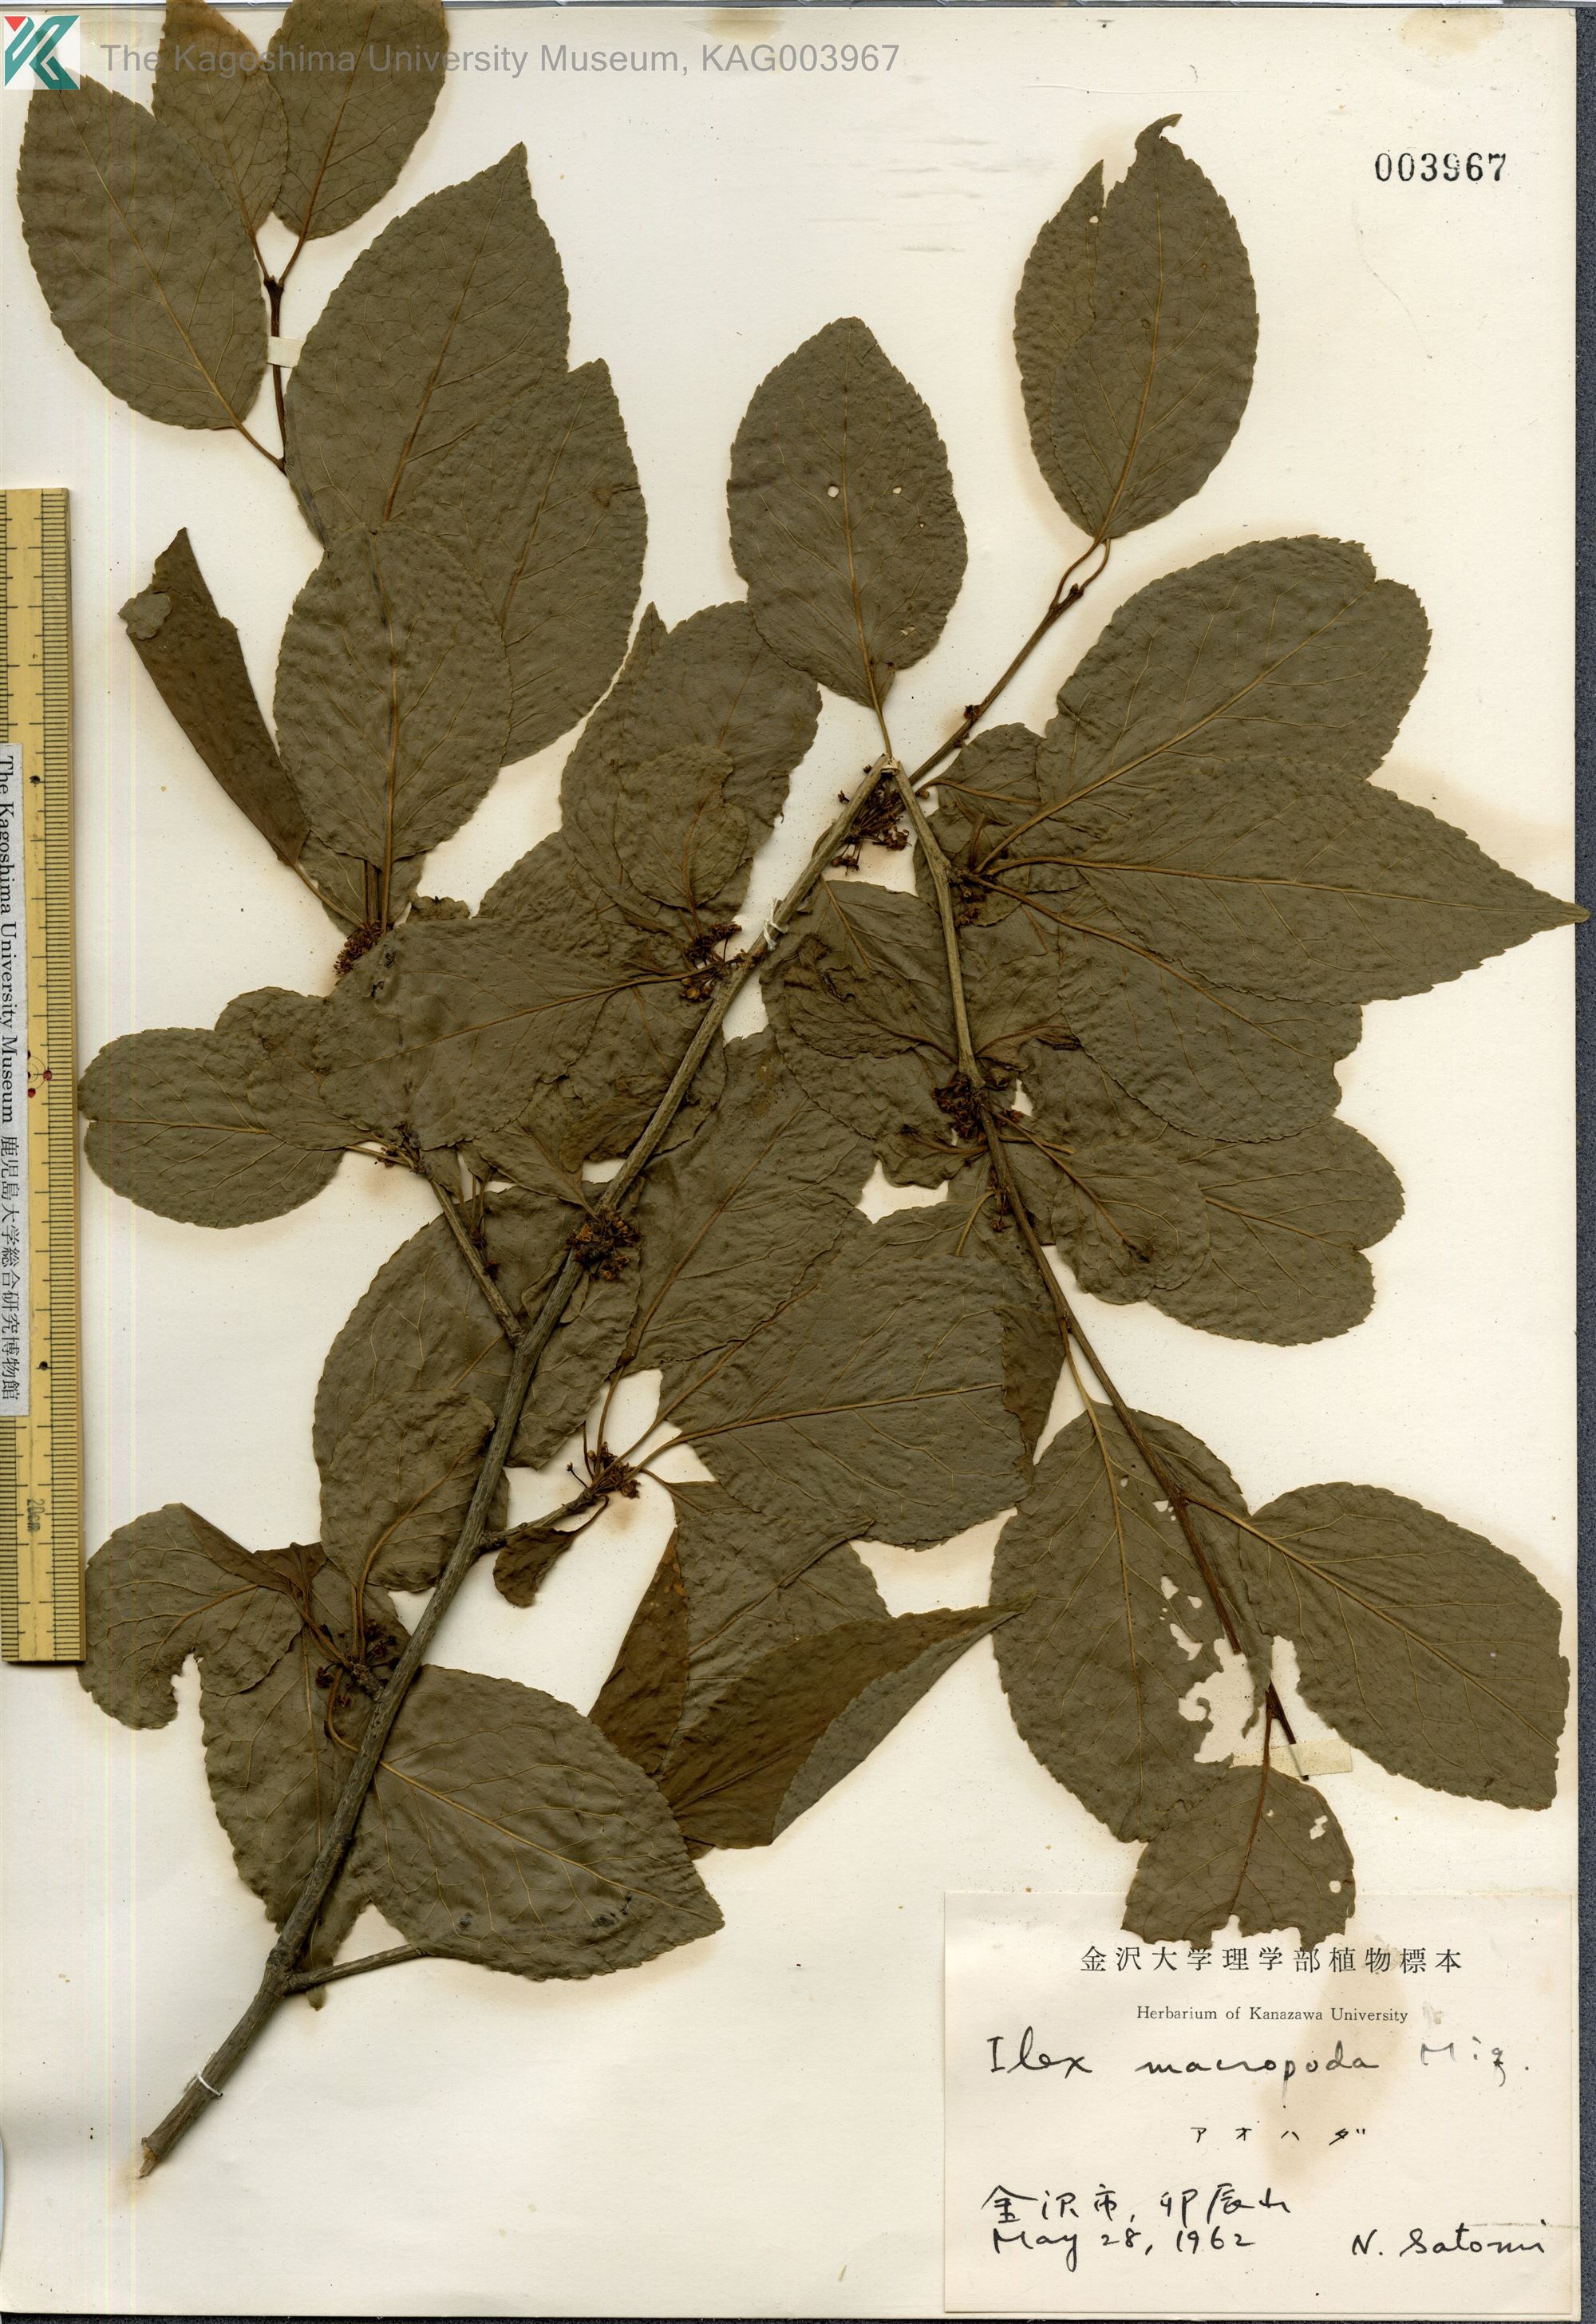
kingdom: Plantae
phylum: Tracheophyta
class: Magnoliopsida
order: Aquifoliales
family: Aquifoliaceae
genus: Ilex
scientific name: Ilex macropoda
